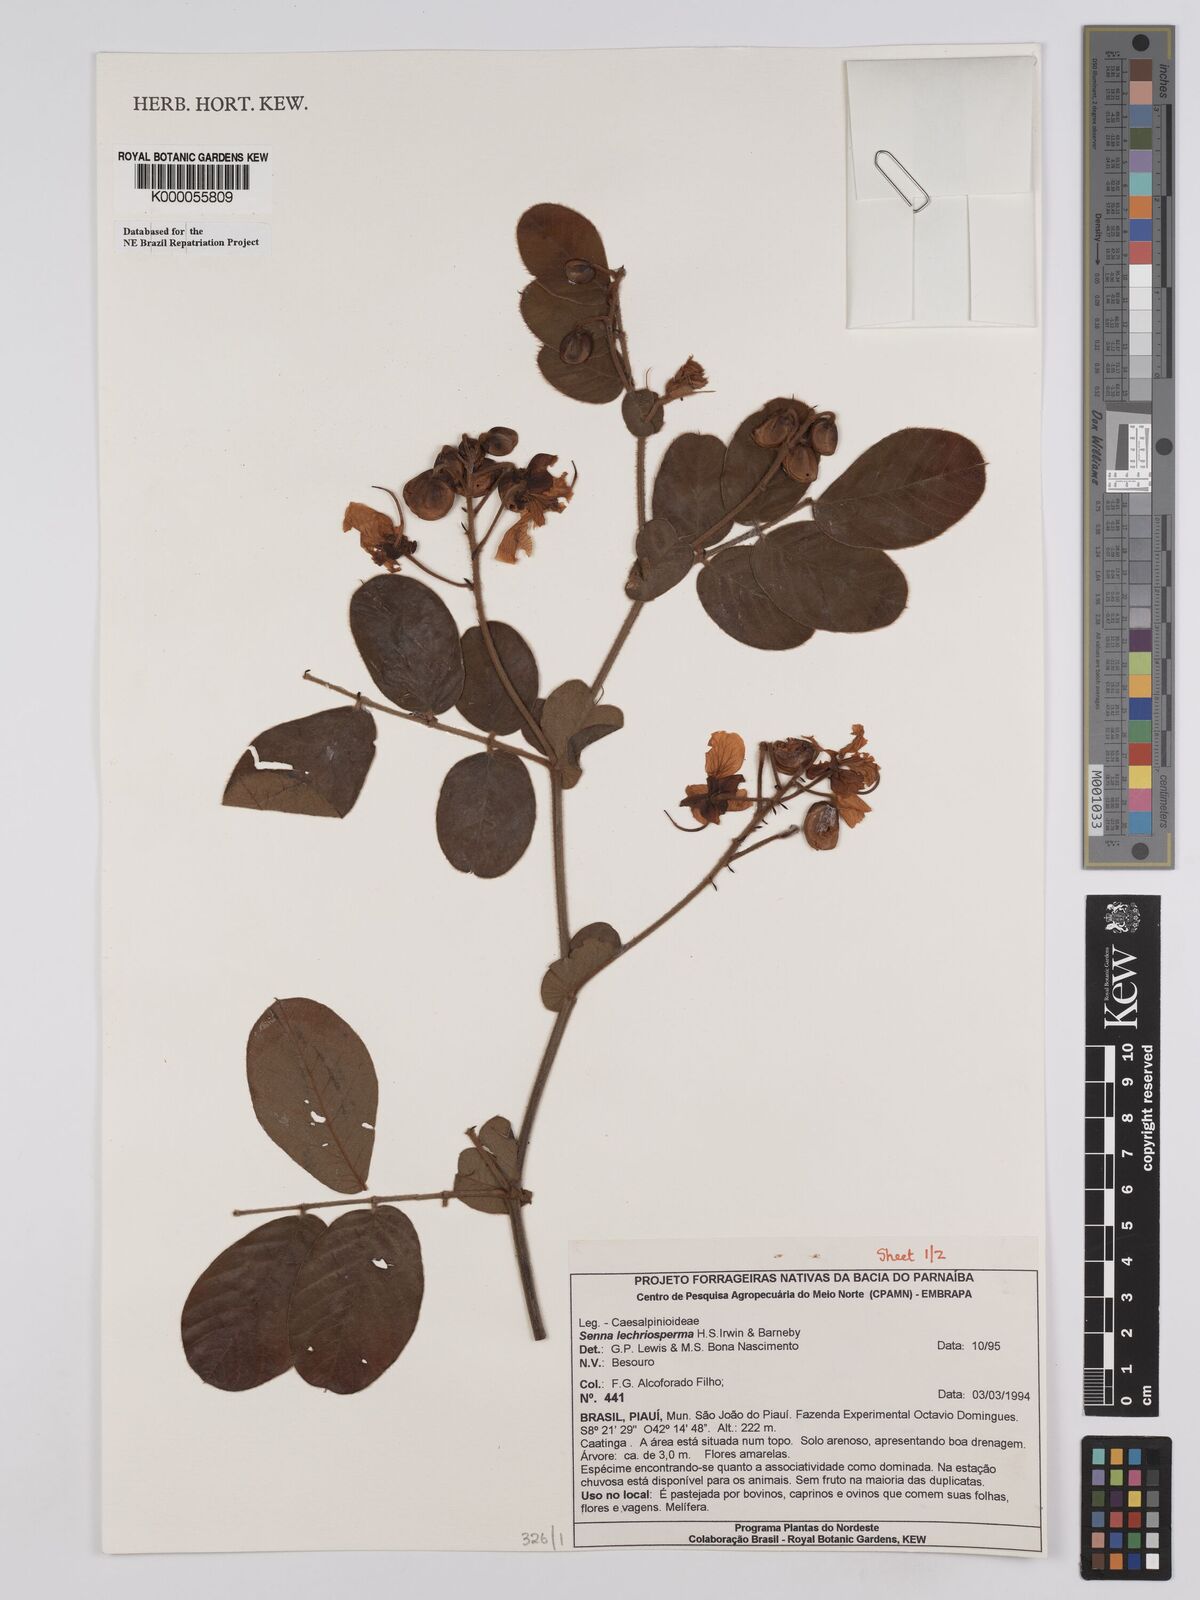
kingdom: Plantae
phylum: Tracheophyta
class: Magnoliopsida
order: Fabales
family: Fabaceae
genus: Senna
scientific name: Senna lechriosperma
